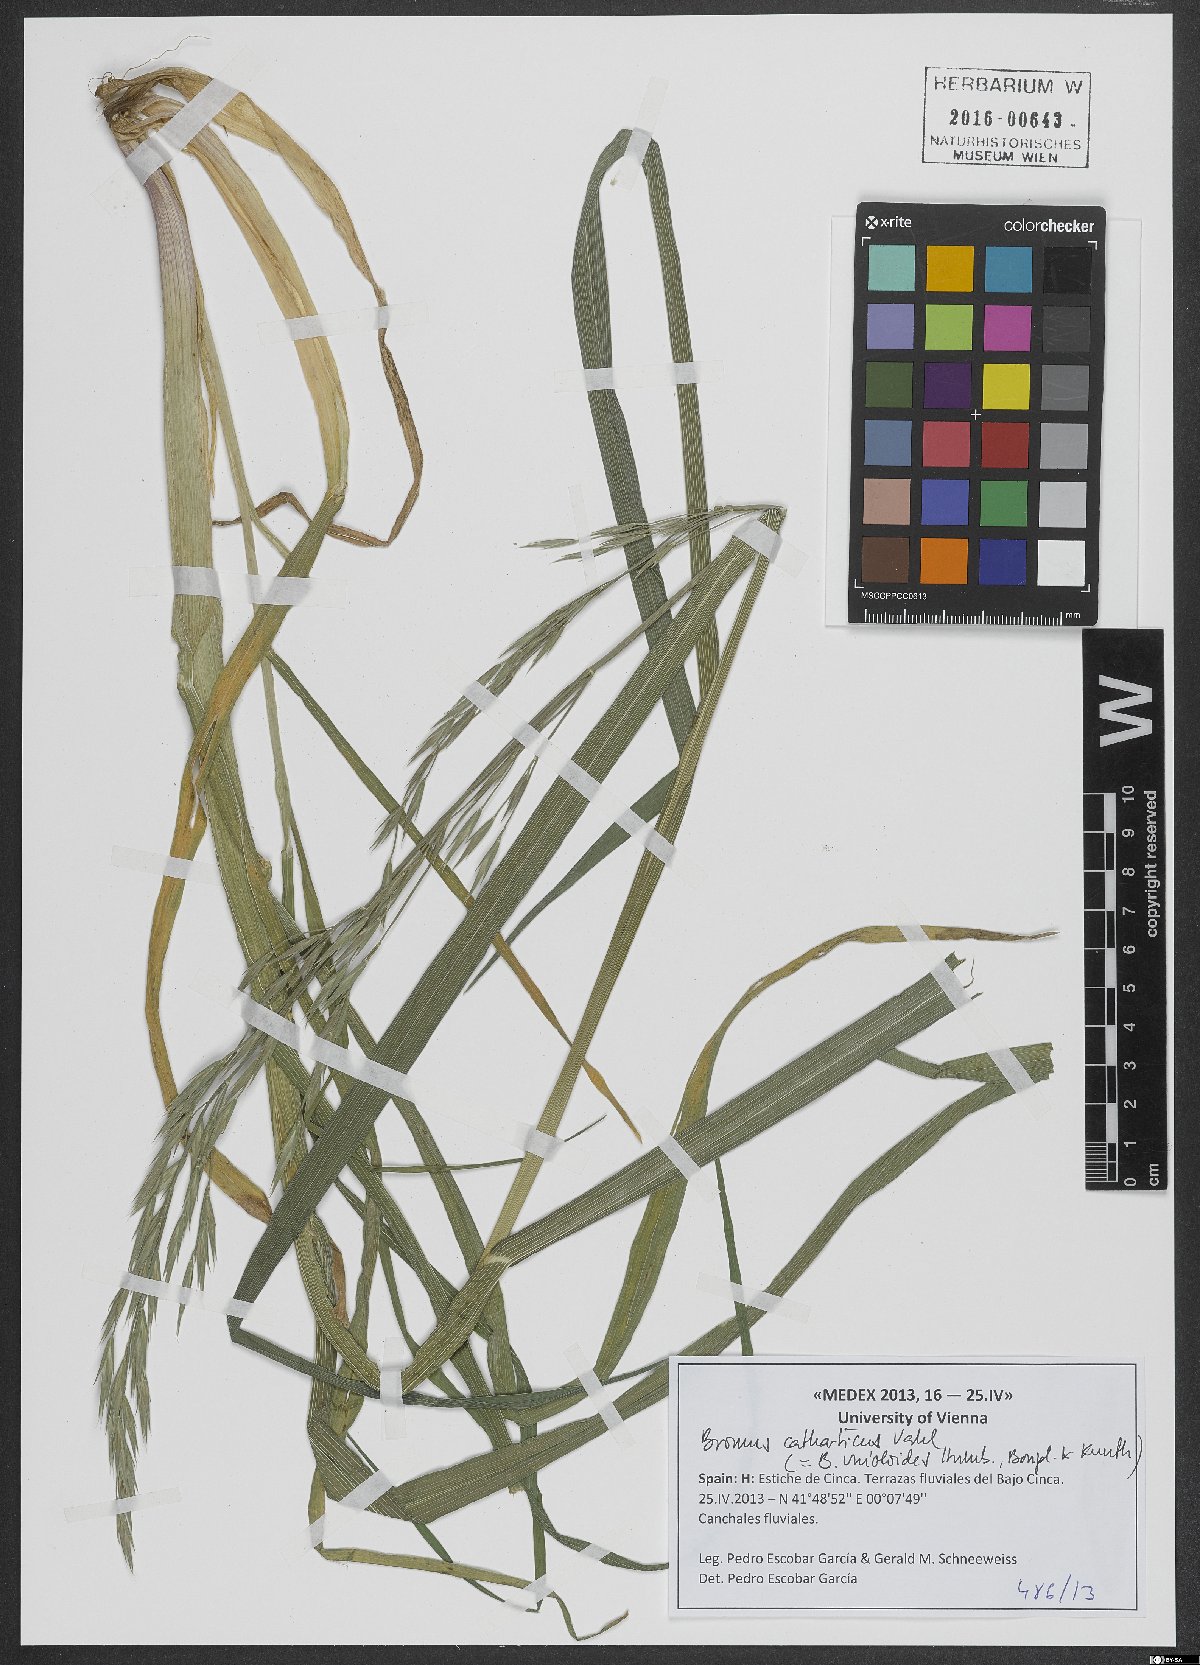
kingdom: Plantae
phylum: Tracheophyta
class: Liliopsida
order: Poales
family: Poaceae
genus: Bromus
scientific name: Bromus catharticus
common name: Rescuegrass
